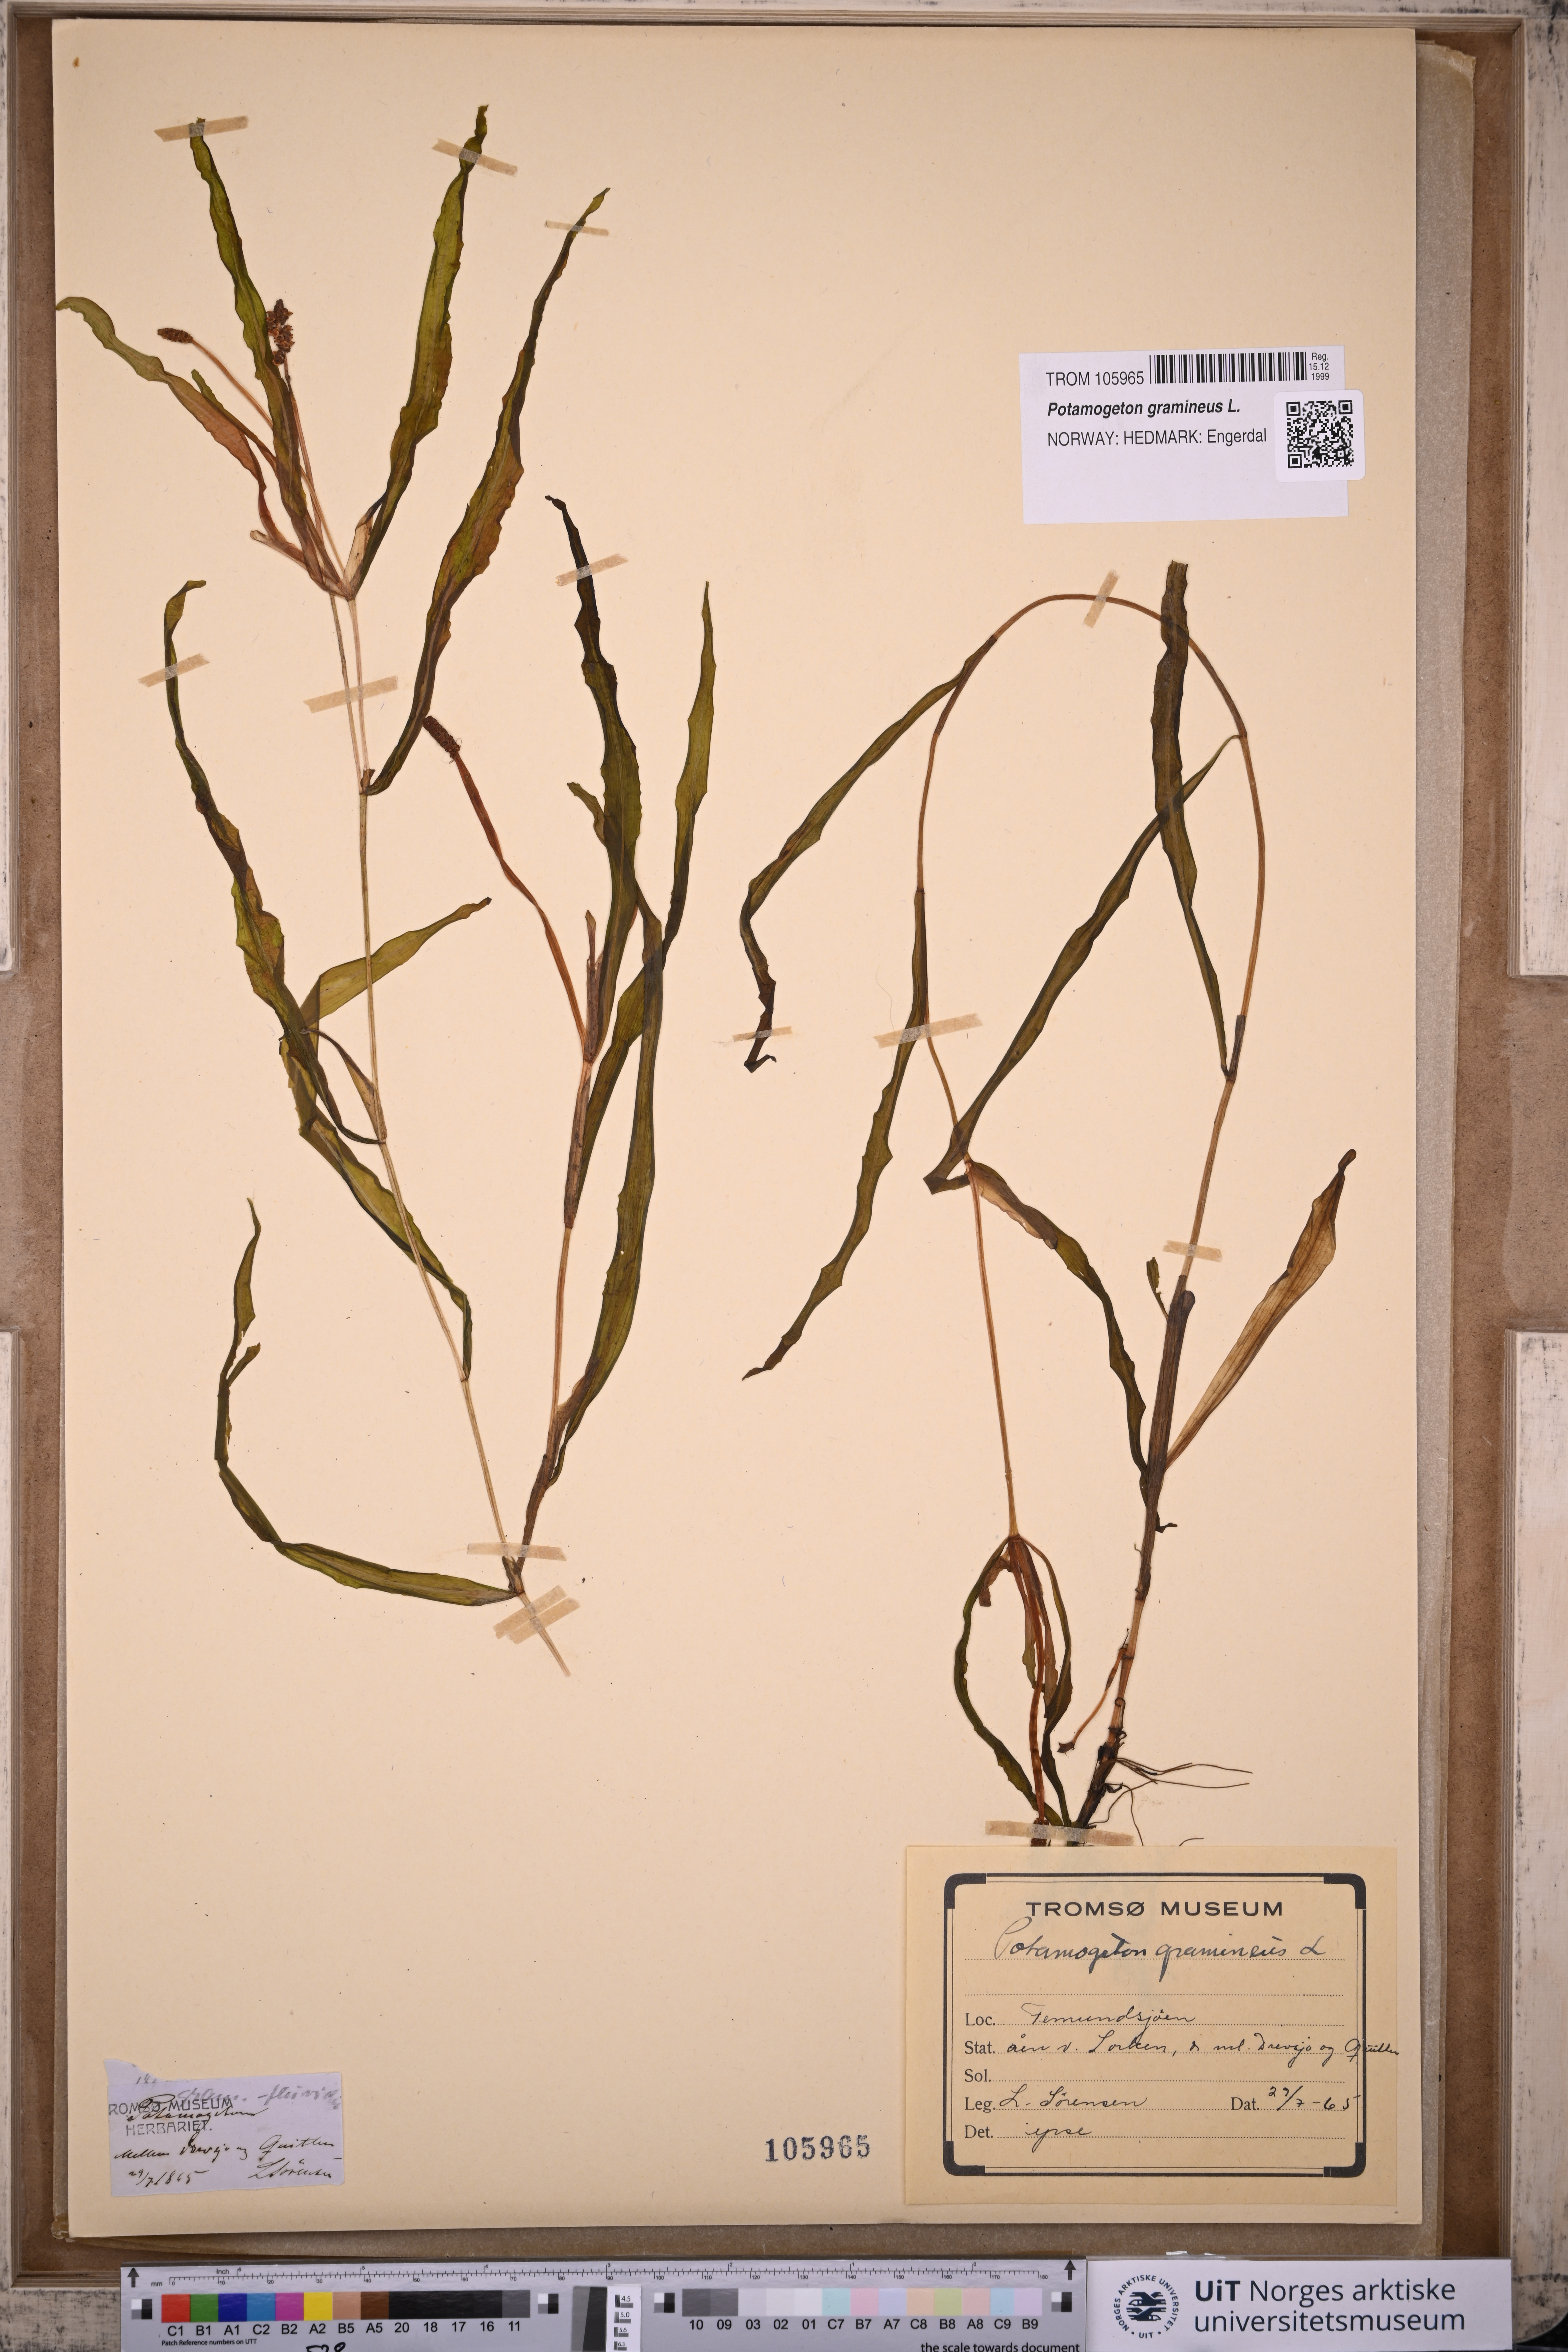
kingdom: Plantae
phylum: Tracheophyta
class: Liliopsida
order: Alismatales
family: Potamogetonaceae
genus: Potamogeton
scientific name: Potamogeton gramineus
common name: Various-leaved pondweed
